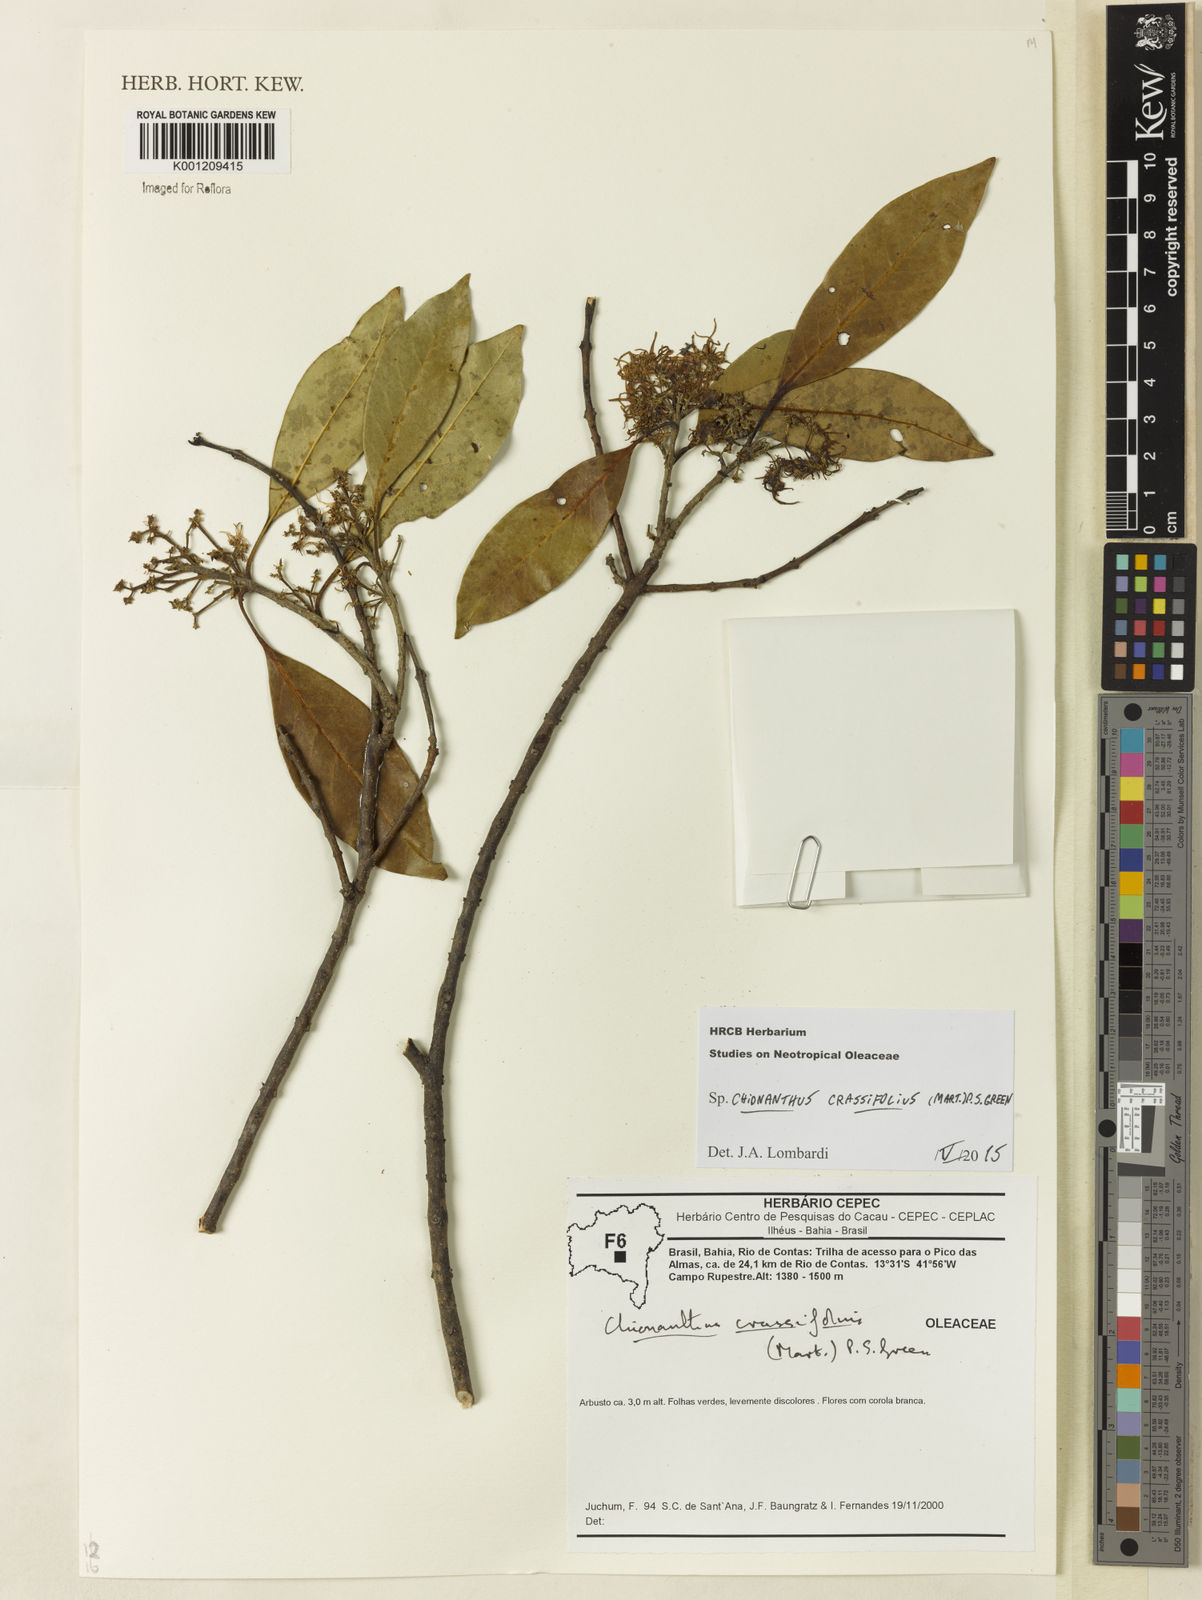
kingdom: Plantae
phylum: Tracheophyta
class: Magnoliopsida
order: Lamiales
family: Oleaceae
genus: Chionanthus
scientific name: Chionanthus crassifolius
